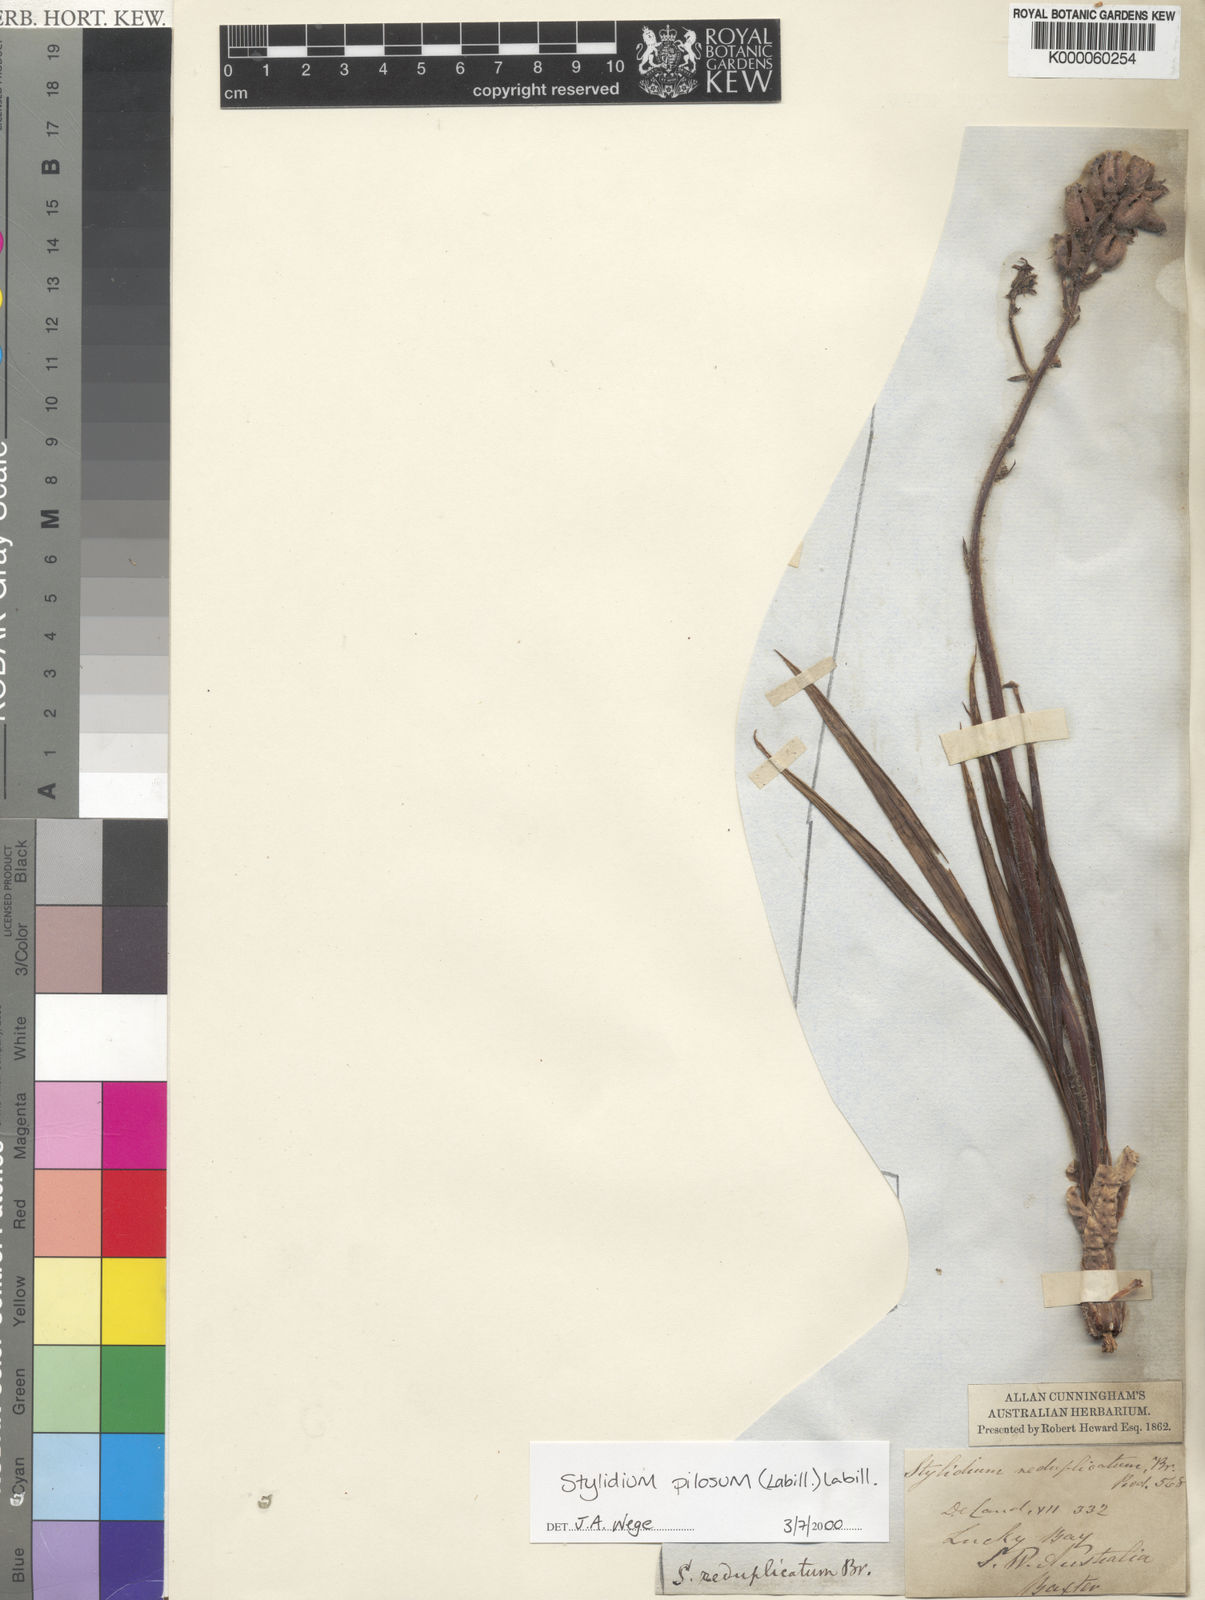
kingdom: Plantae
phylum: Tracheophyta
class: Magnoliopsida
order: Asterales
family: Stylidiaceae
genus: Stylidium
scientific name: Stylidium pilosum
